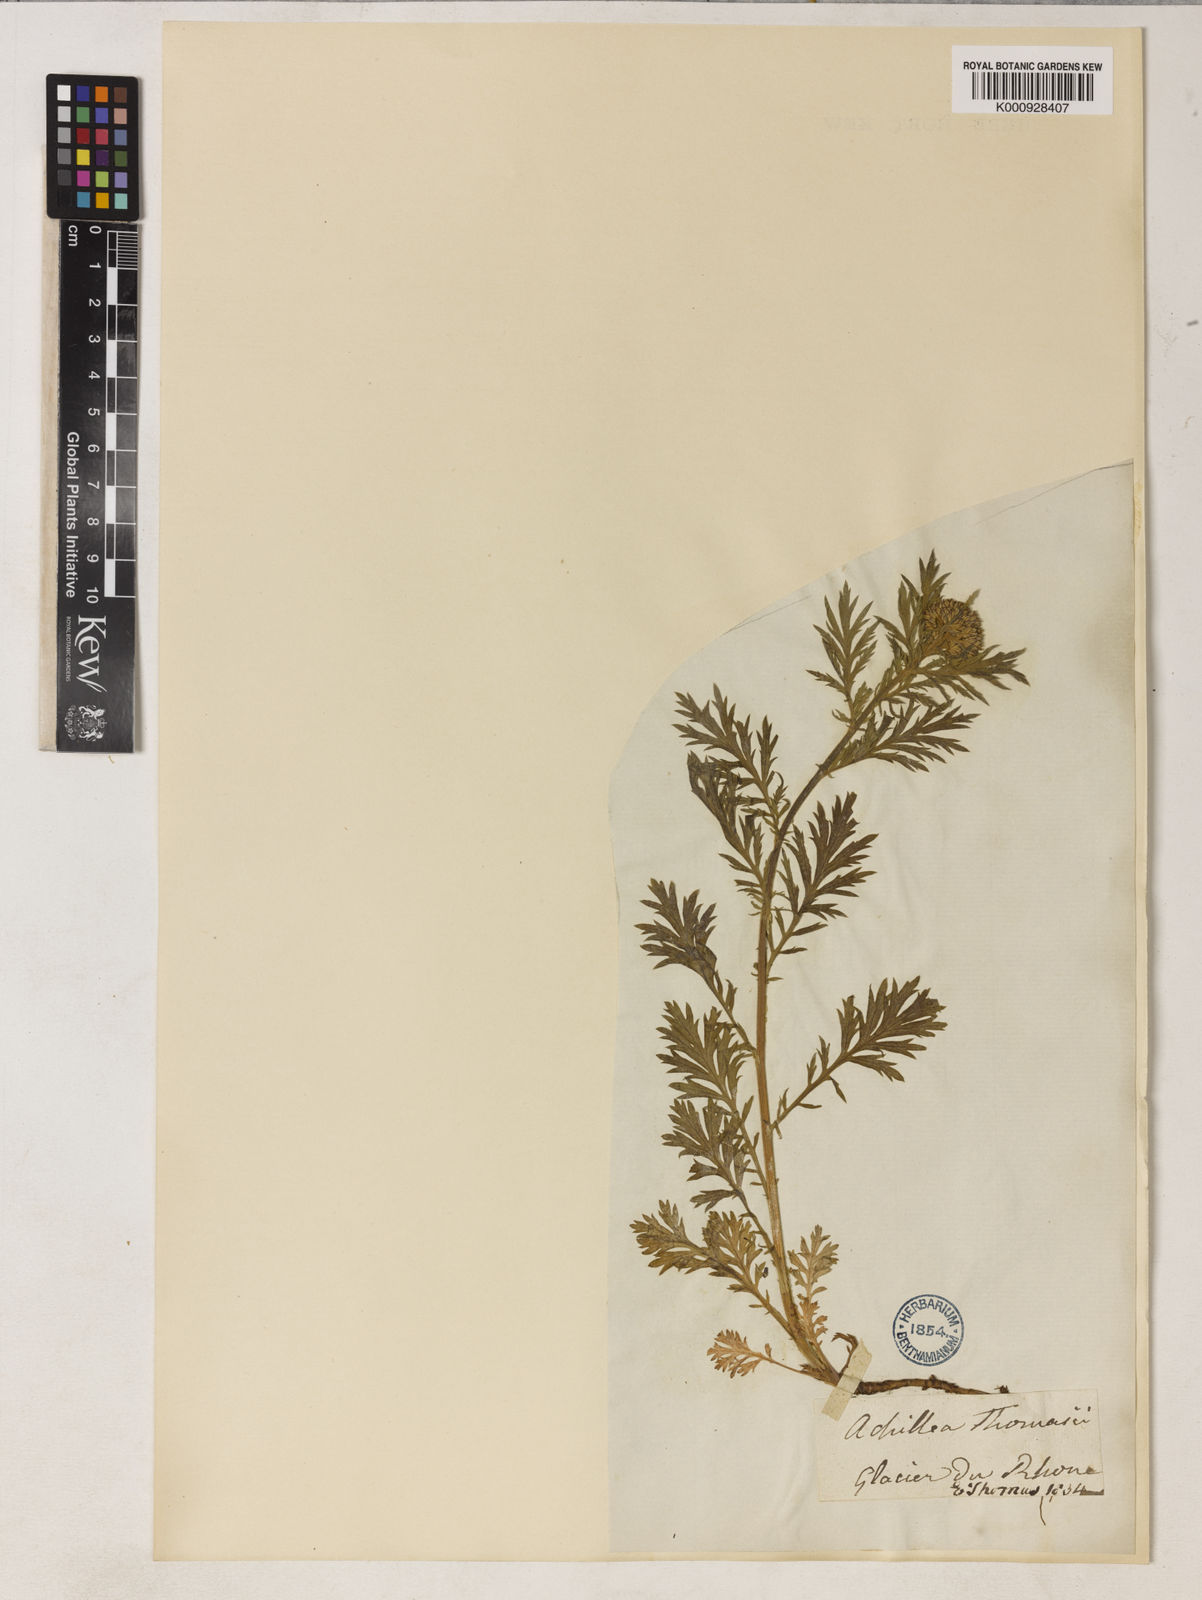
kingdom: Plantae
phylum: Tracheophyta
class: Magnoliopsida
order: Asterales
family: Asteraceae
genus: Achillea
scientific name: Achillea thomasiana ex
